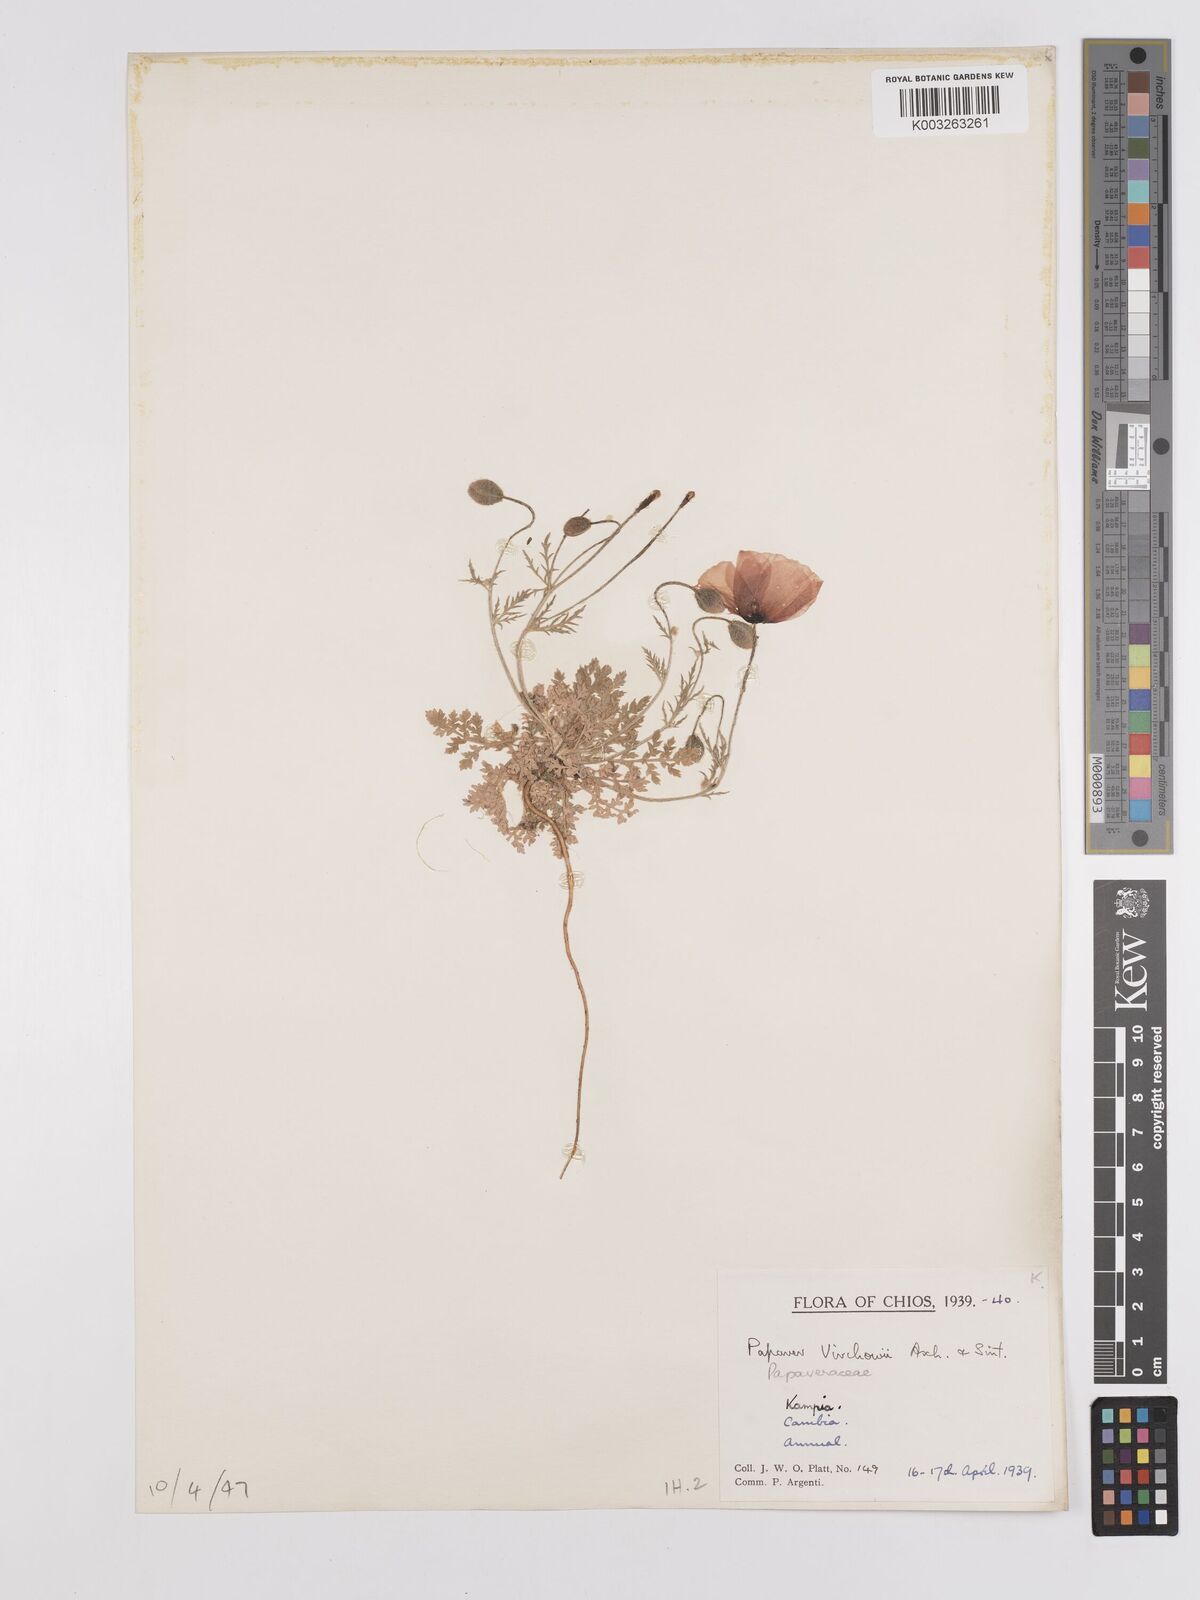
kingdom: Plantae
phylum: Tracheophyta
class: Magnoliopsida
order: Ranunculales
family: Papaveraceae
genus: Roemeria
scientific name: Roemeria virchowii
